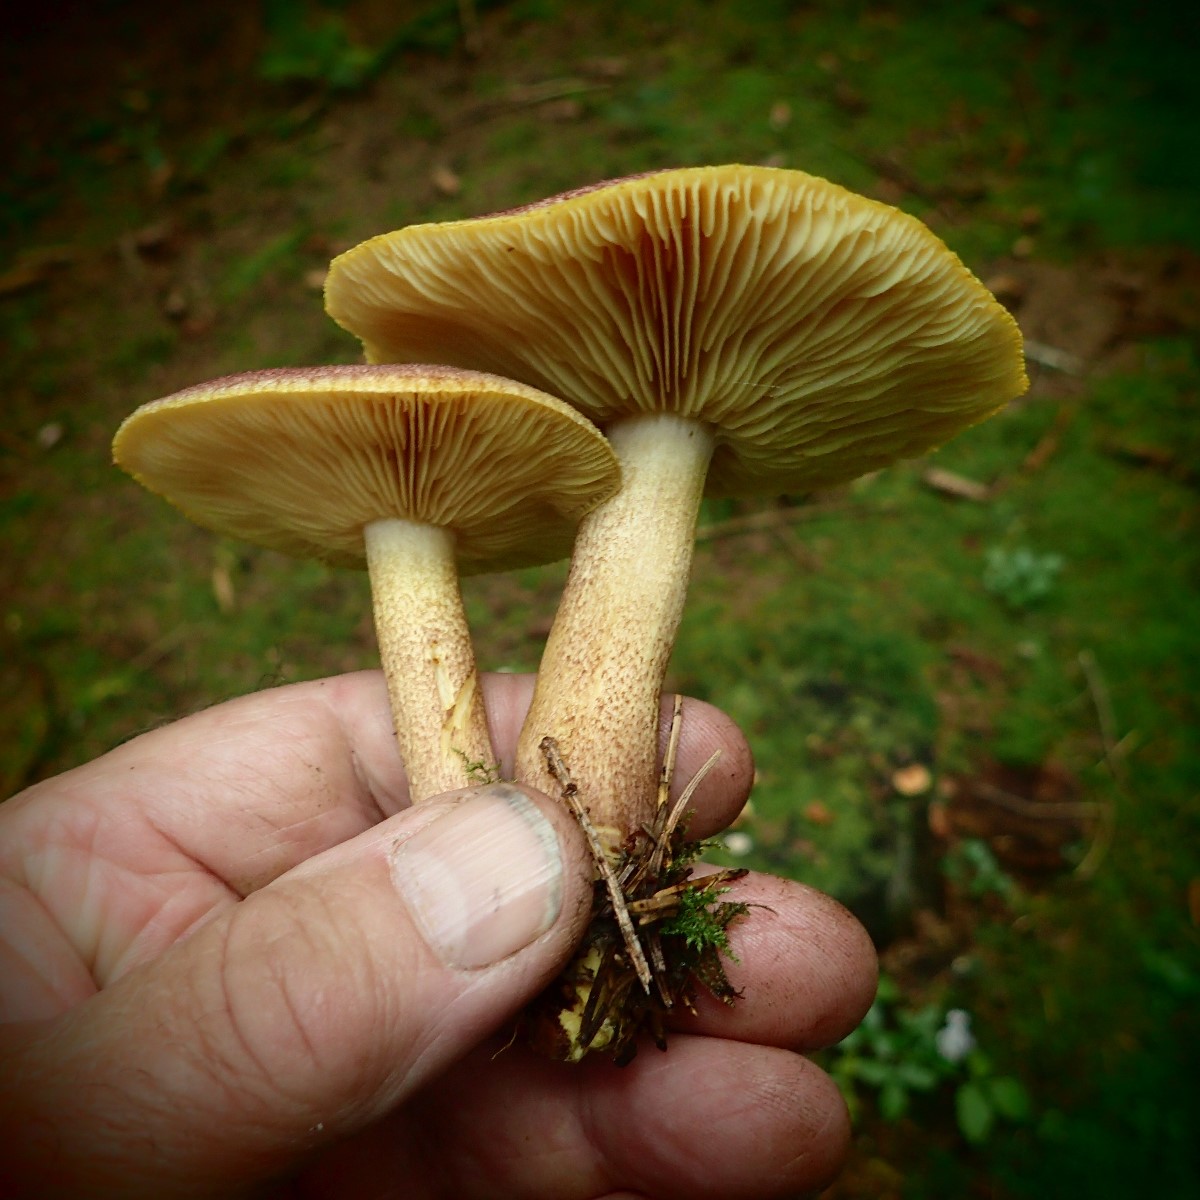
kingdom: Fungi
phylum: Basidiomycota
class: Agaricomycetes
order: Agaricales
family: Tricholomataceae
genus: Tricholomopsis
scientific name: Tricholomopsis rutilans
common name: purpur-væbnerhat
